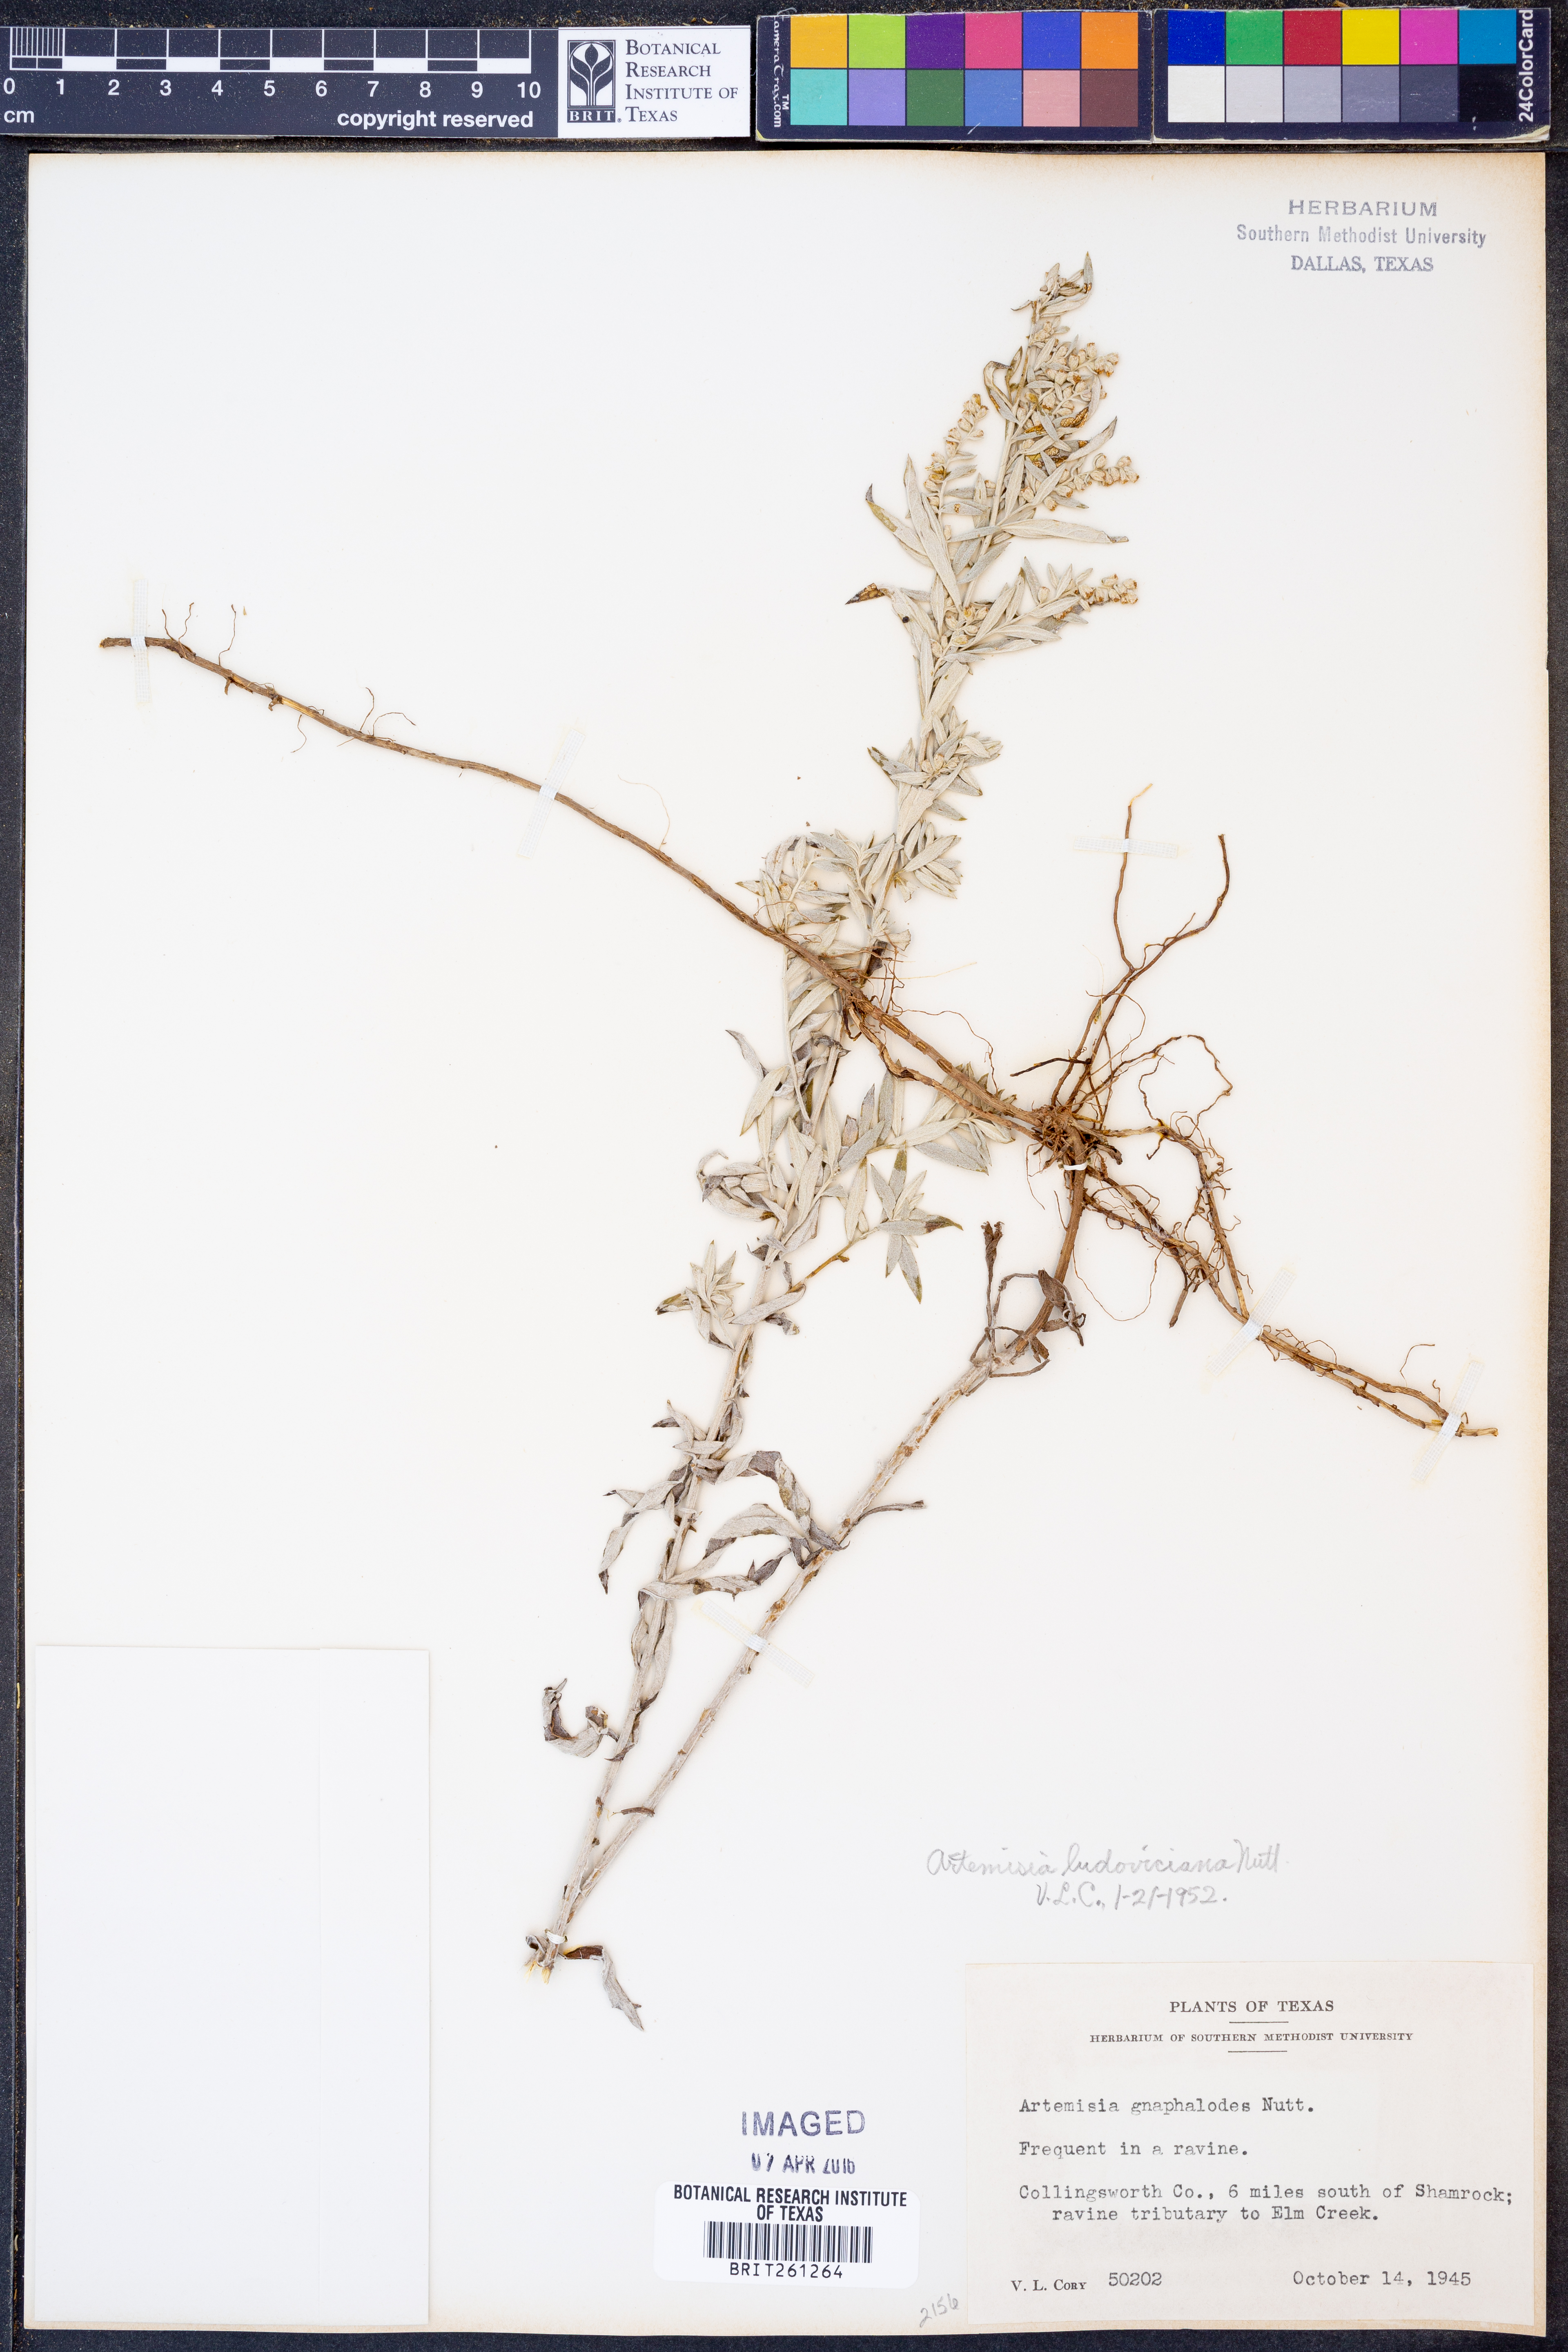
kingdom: Plantae
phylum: Tracheophyta
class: Magnoliopsida
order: Asterales
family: Asteraceae
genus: Artemisia
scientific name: Artemisia ludoviciana
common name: Western mugwort
